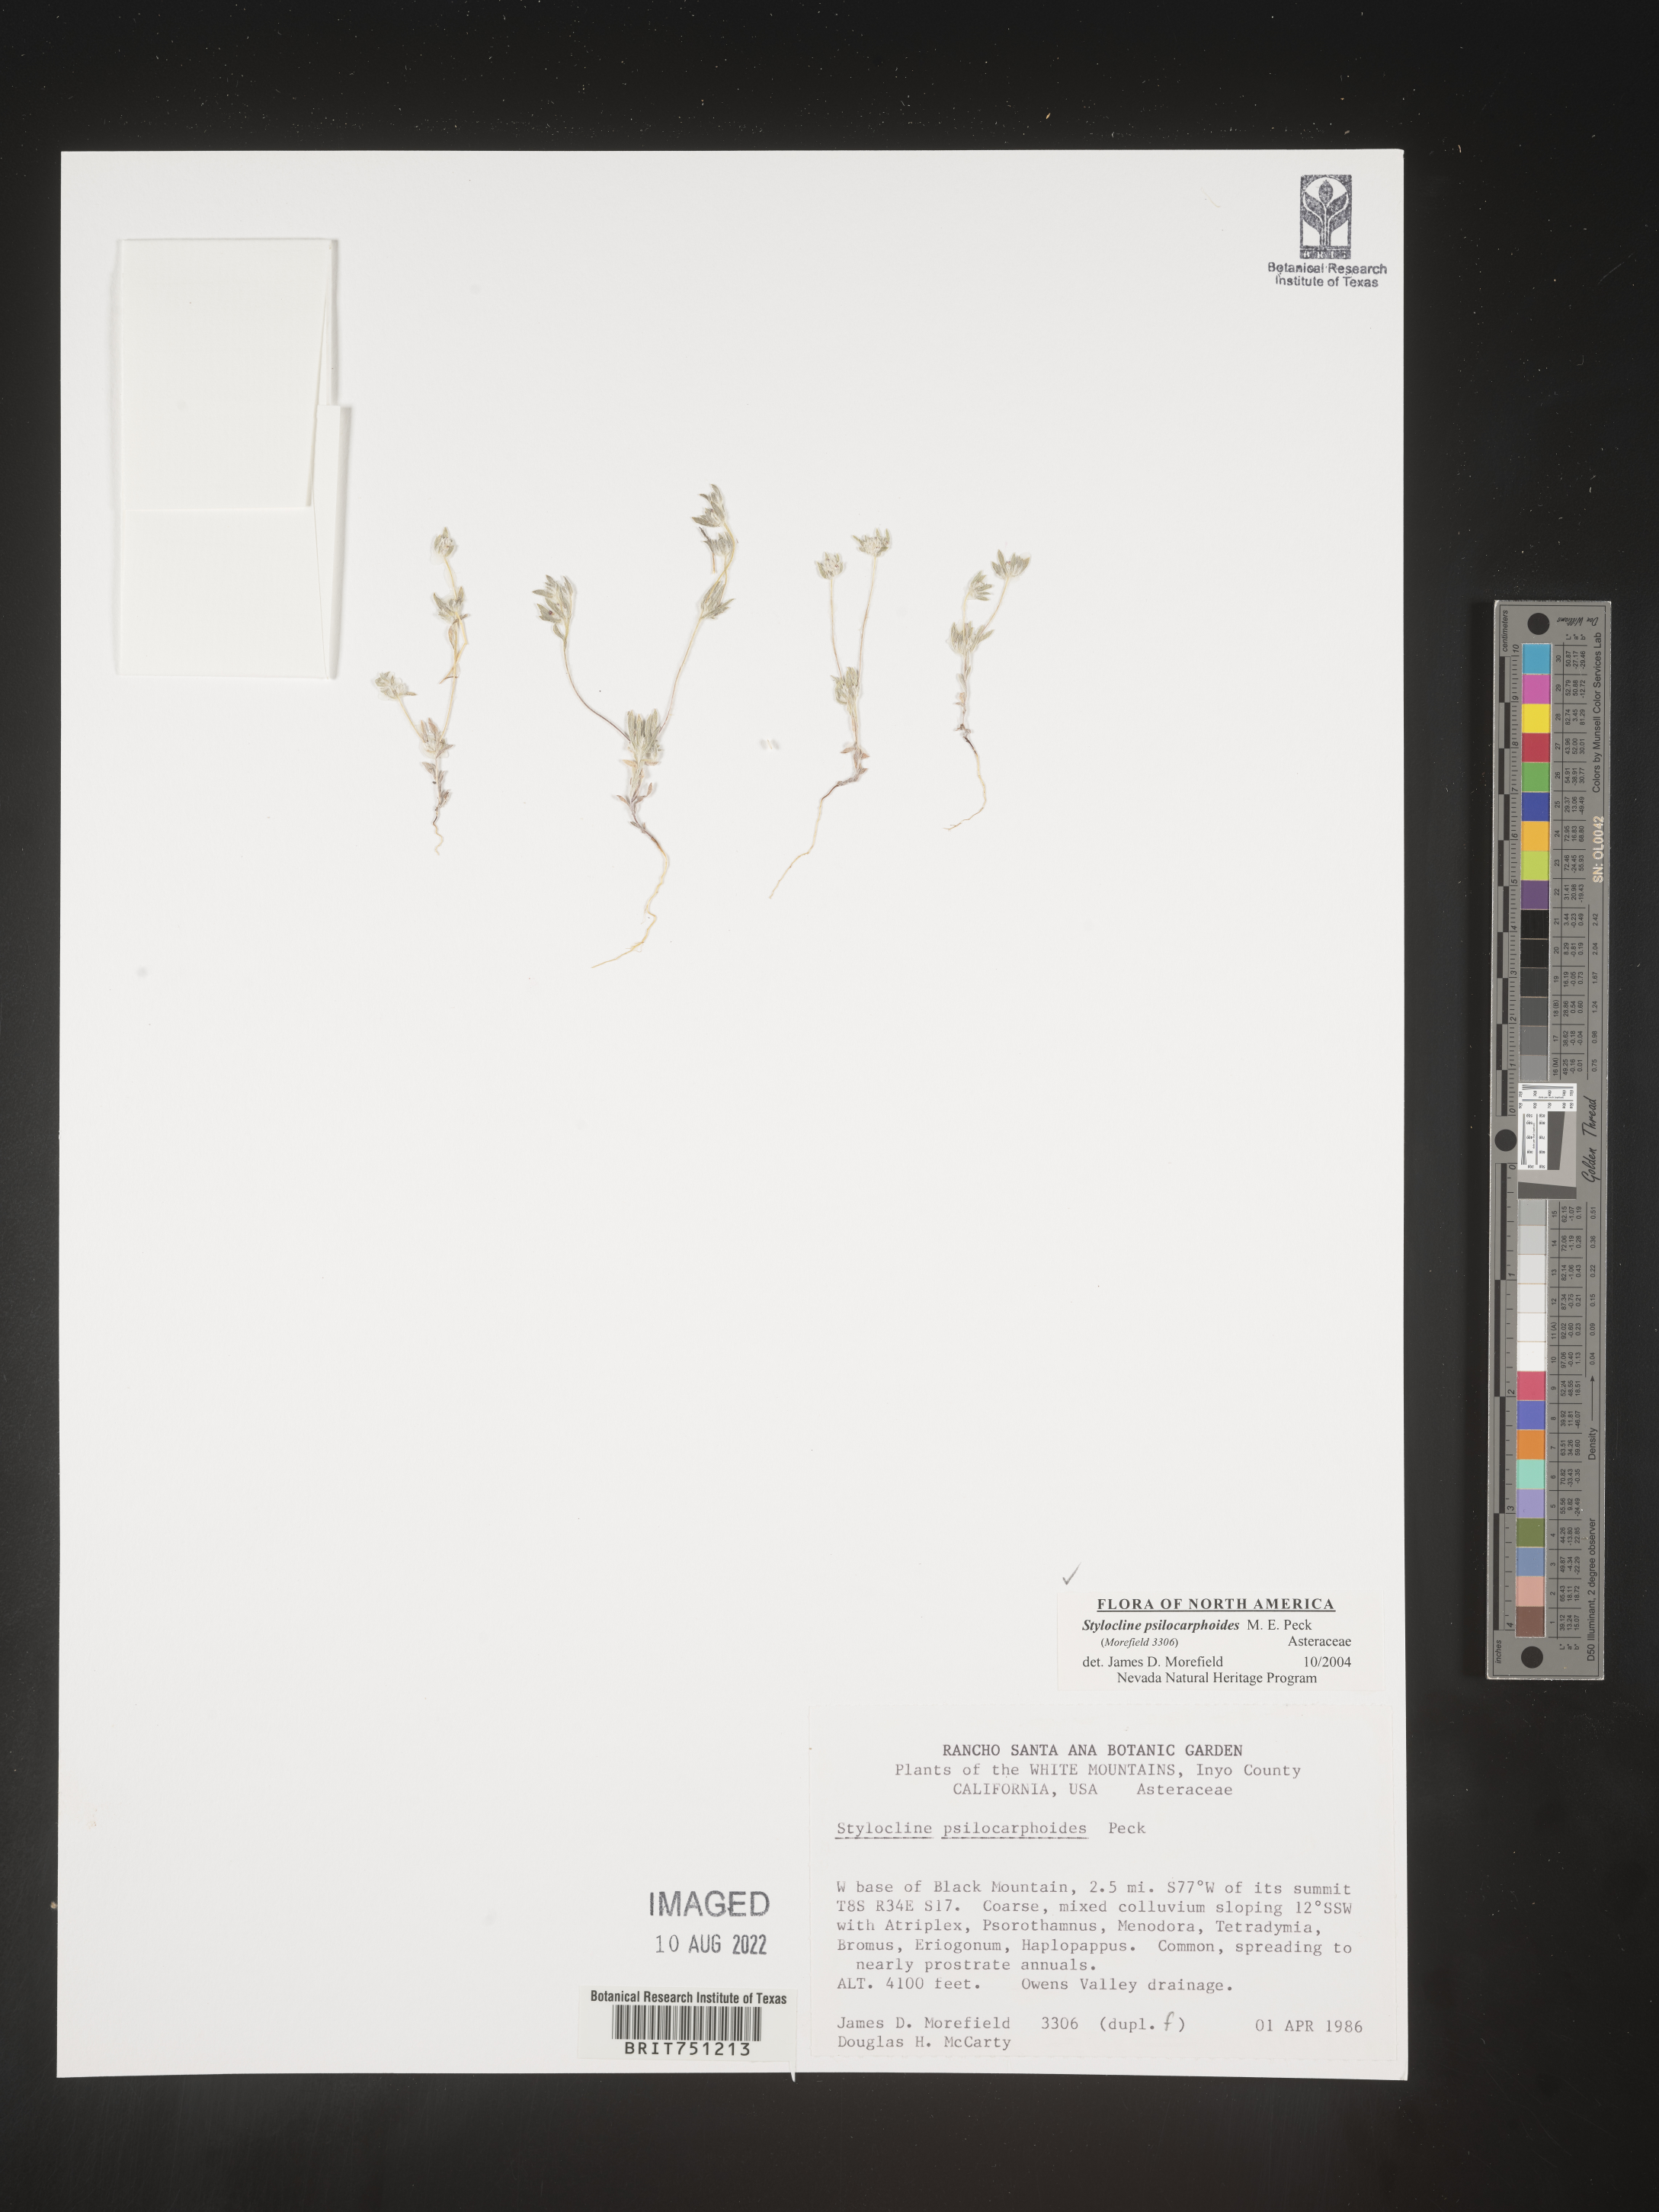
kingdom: Plantae
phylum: Tracheophyta
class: Magnoliopsida
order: Asterales
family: Asteraceae
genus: Stylocline
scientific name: Stylocline
